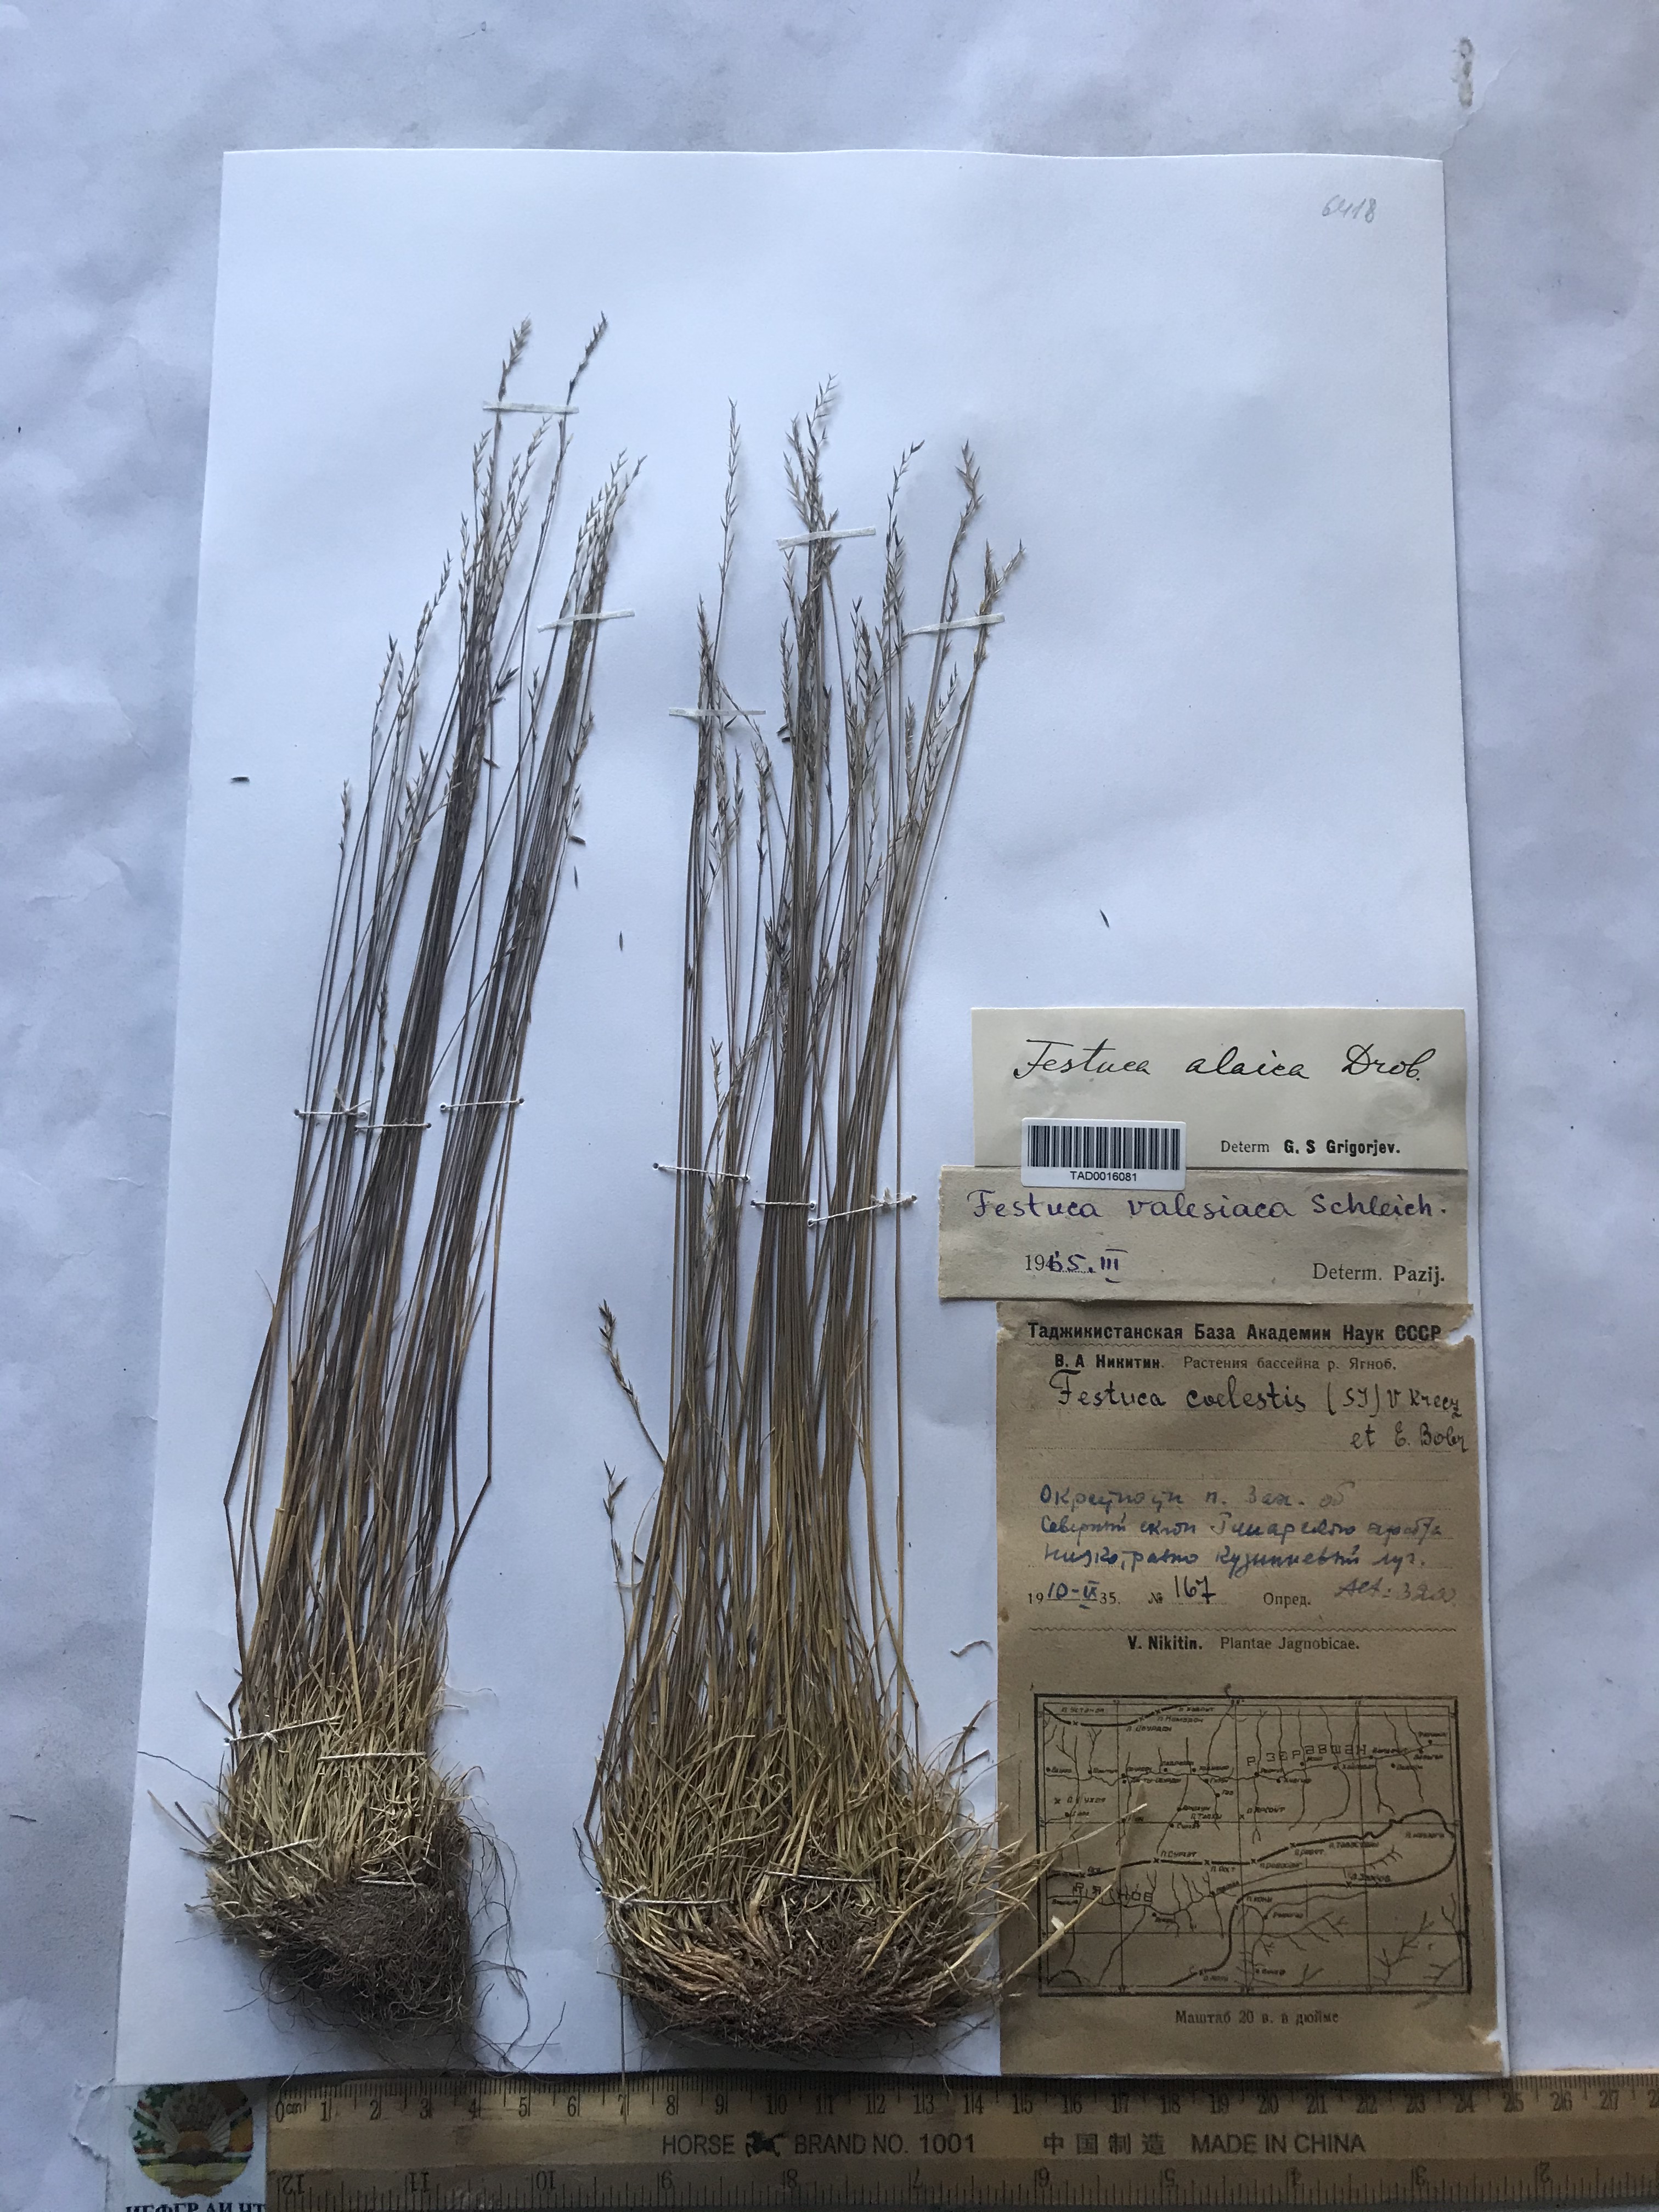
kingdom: Plantae
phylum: Tracheophyta
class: Liliopsida
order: Poales
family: Poaceae
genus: Festuca
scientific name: Festuca valesiaca
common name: Volga fescue
